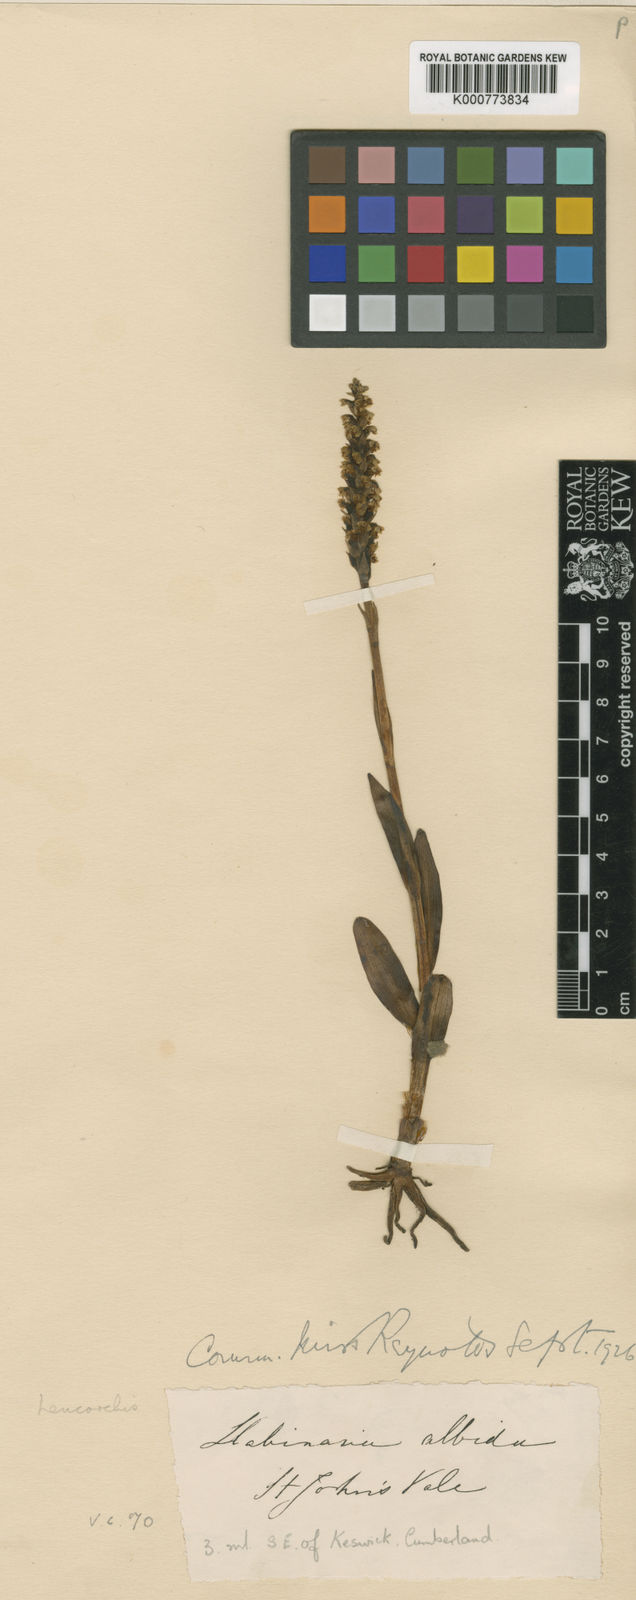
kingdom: Plantae
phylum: Tracheophyta
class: Liliopsida
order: Asparagales
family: Orchidaceae
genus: Pseudorchis
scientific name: Pseudorchis
